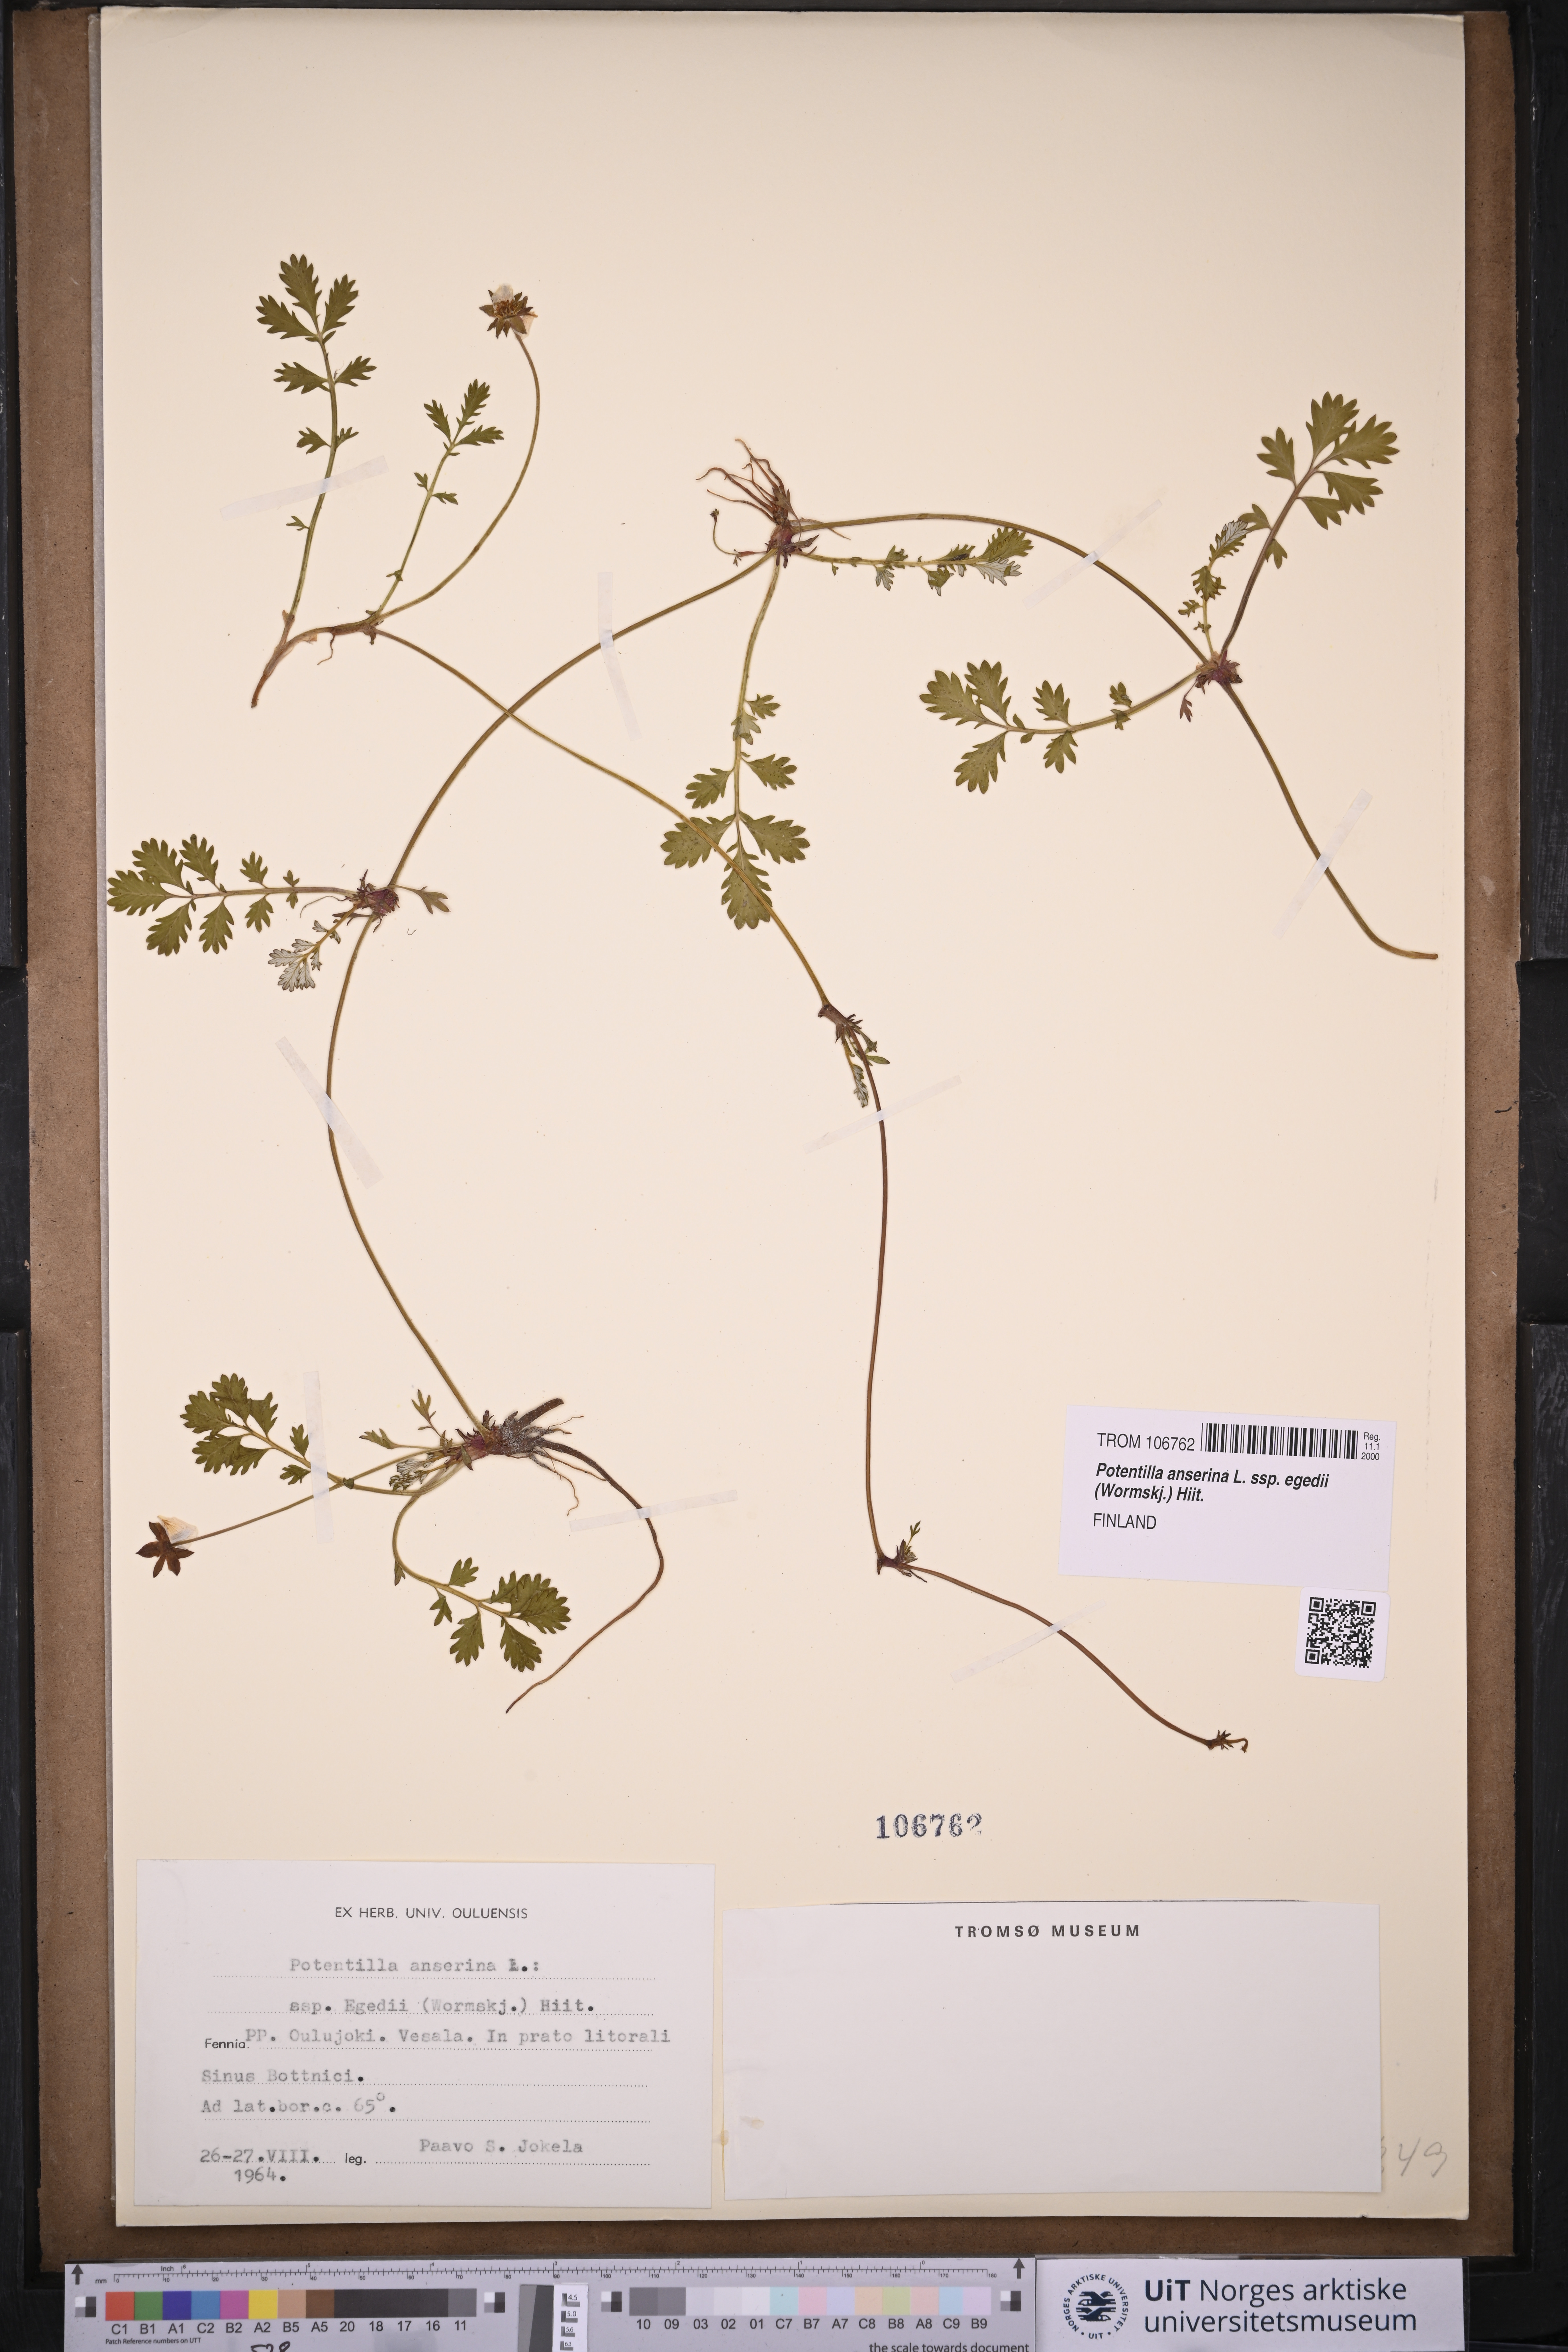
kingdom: Plantae
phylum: Tracheophyta
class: Magnoliopsida
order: Rosales
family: Rosaceae
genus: Argentina
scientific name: Argentina anserina
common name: Common silverweed
